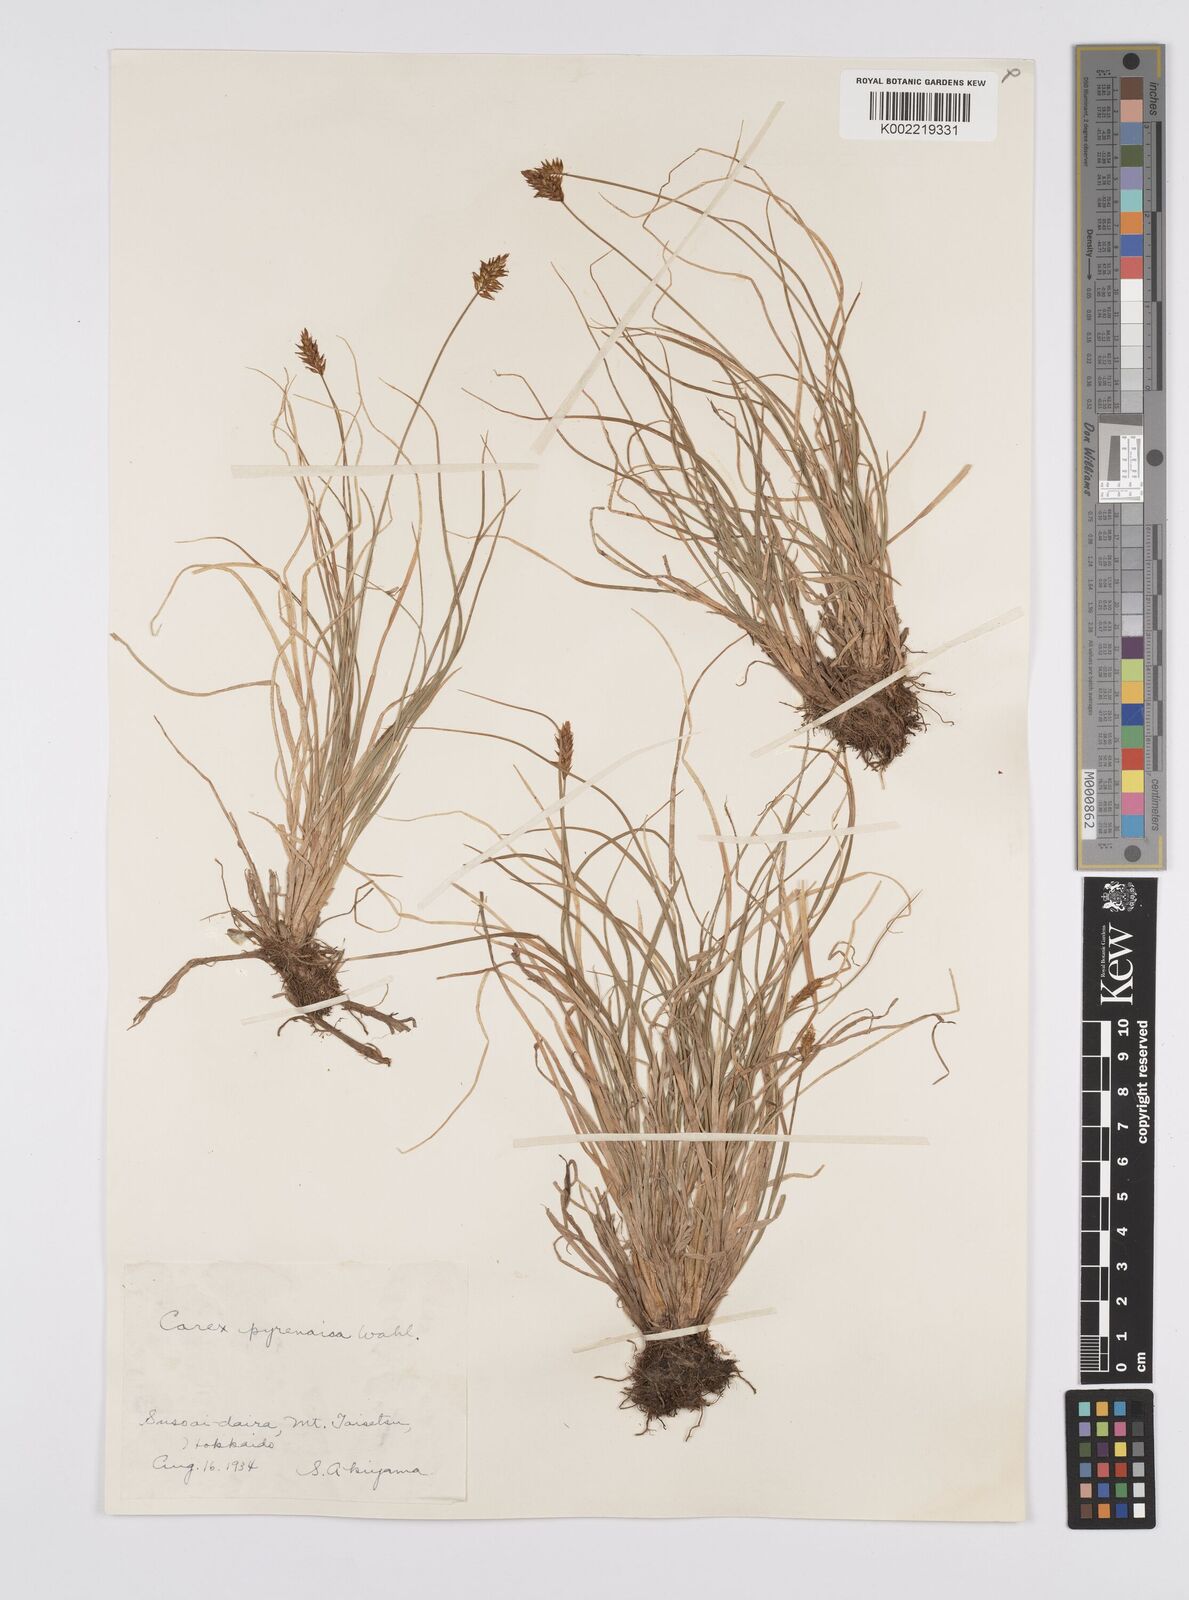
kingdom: Plantae
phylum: Tracheophyta
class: Liliopsida
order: Poales
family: Cyperaceae
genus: Carex
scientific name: Carex pyrenaica
